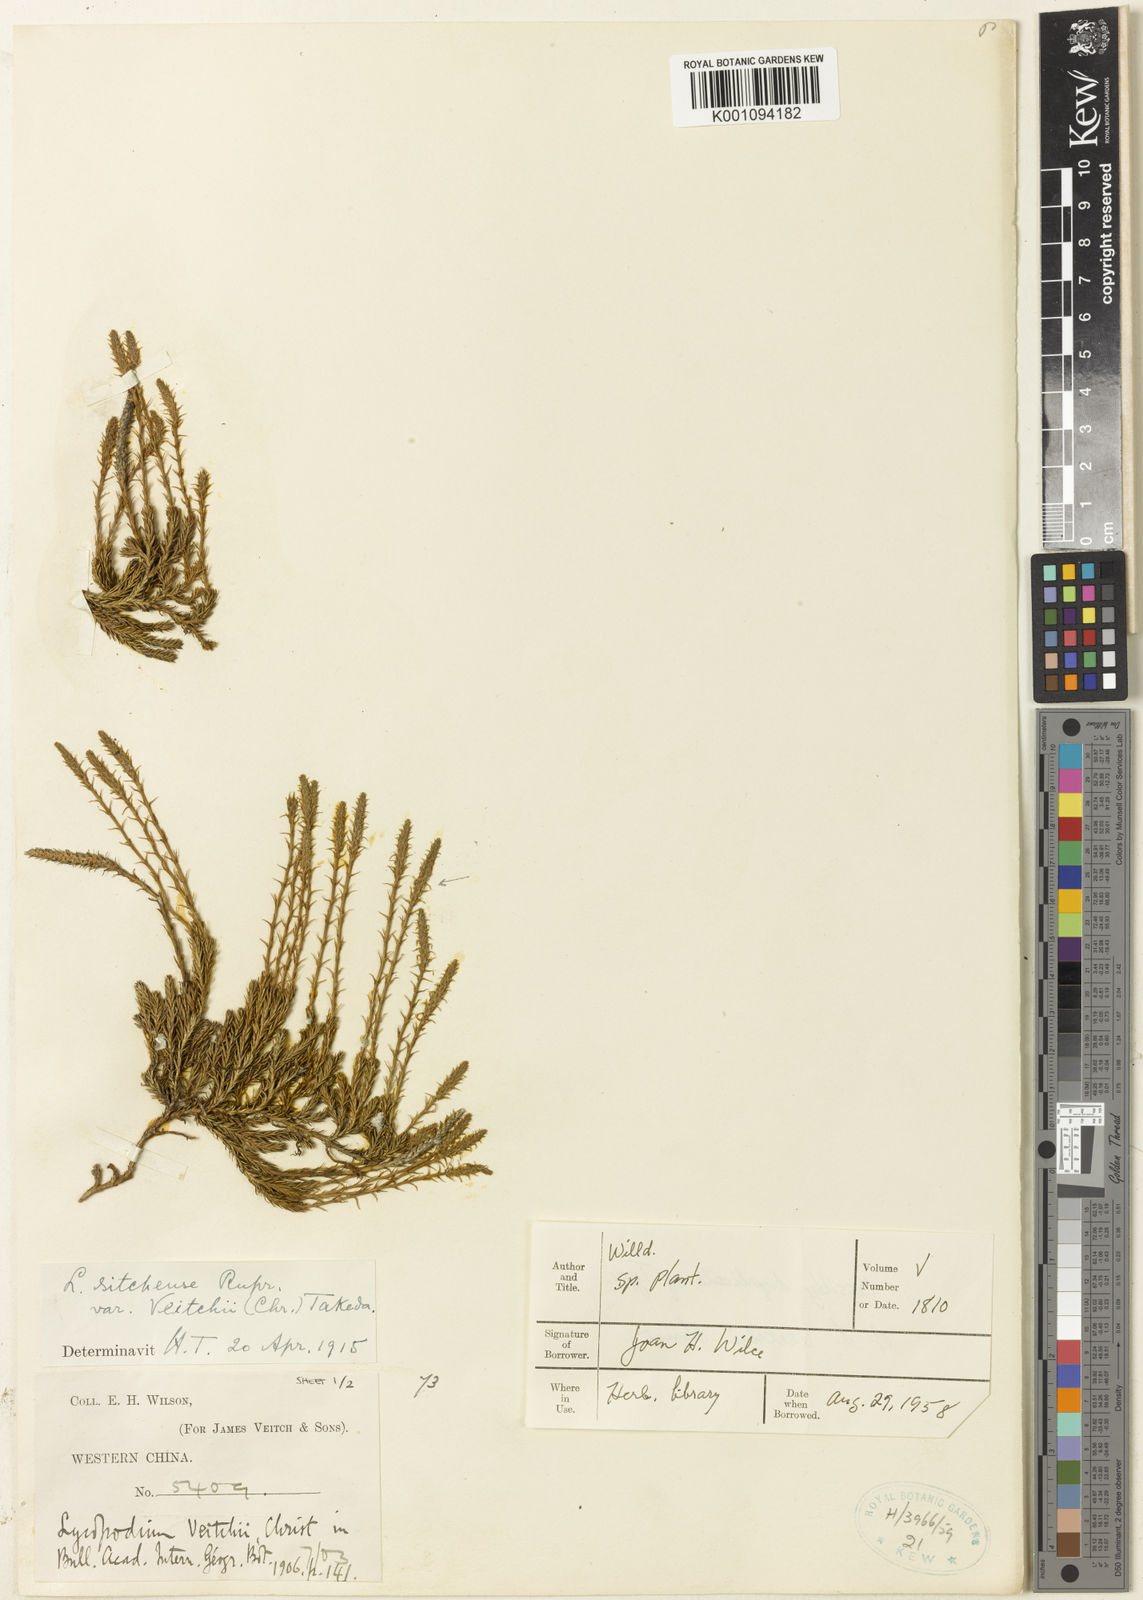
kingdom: Plantae
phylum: Tracheophyta
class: Lycopodiopsida
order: Lycopodiales
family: Lycopodiaceae
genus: Lycopodium
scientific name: Lycopodium
